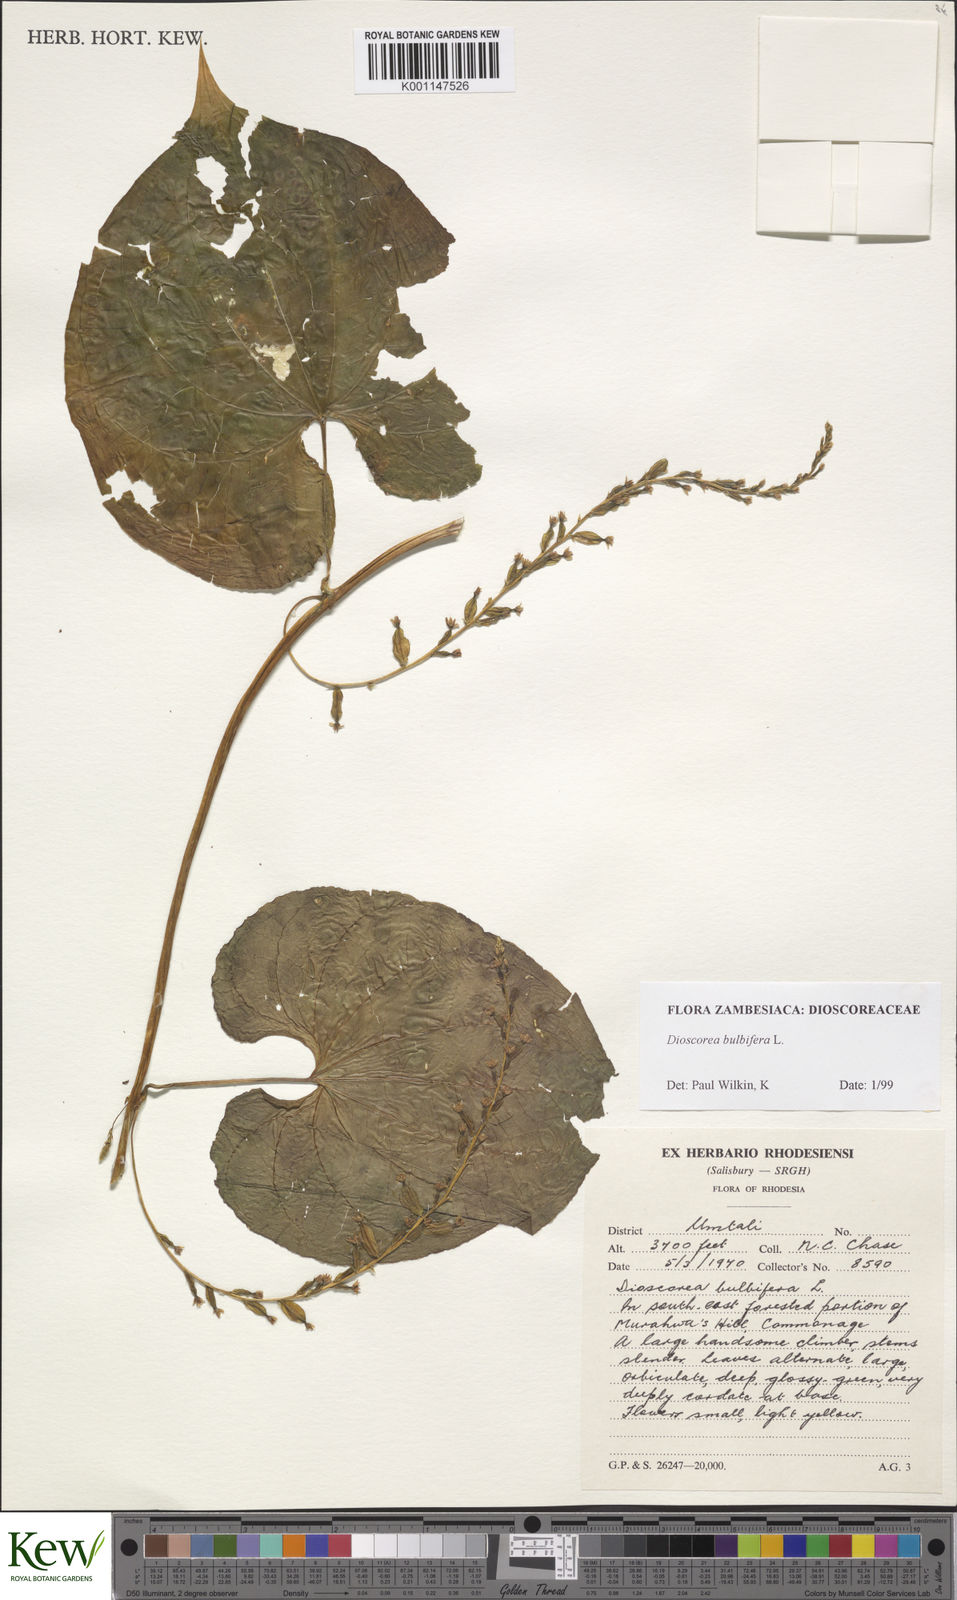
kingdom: Plantae
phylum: Tracheophyta
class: Liliopsida
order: Dioscoreales
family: Dioscoreaceae
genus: Dioscorea
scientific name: Dioscorea bulbifera
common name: Air yam
